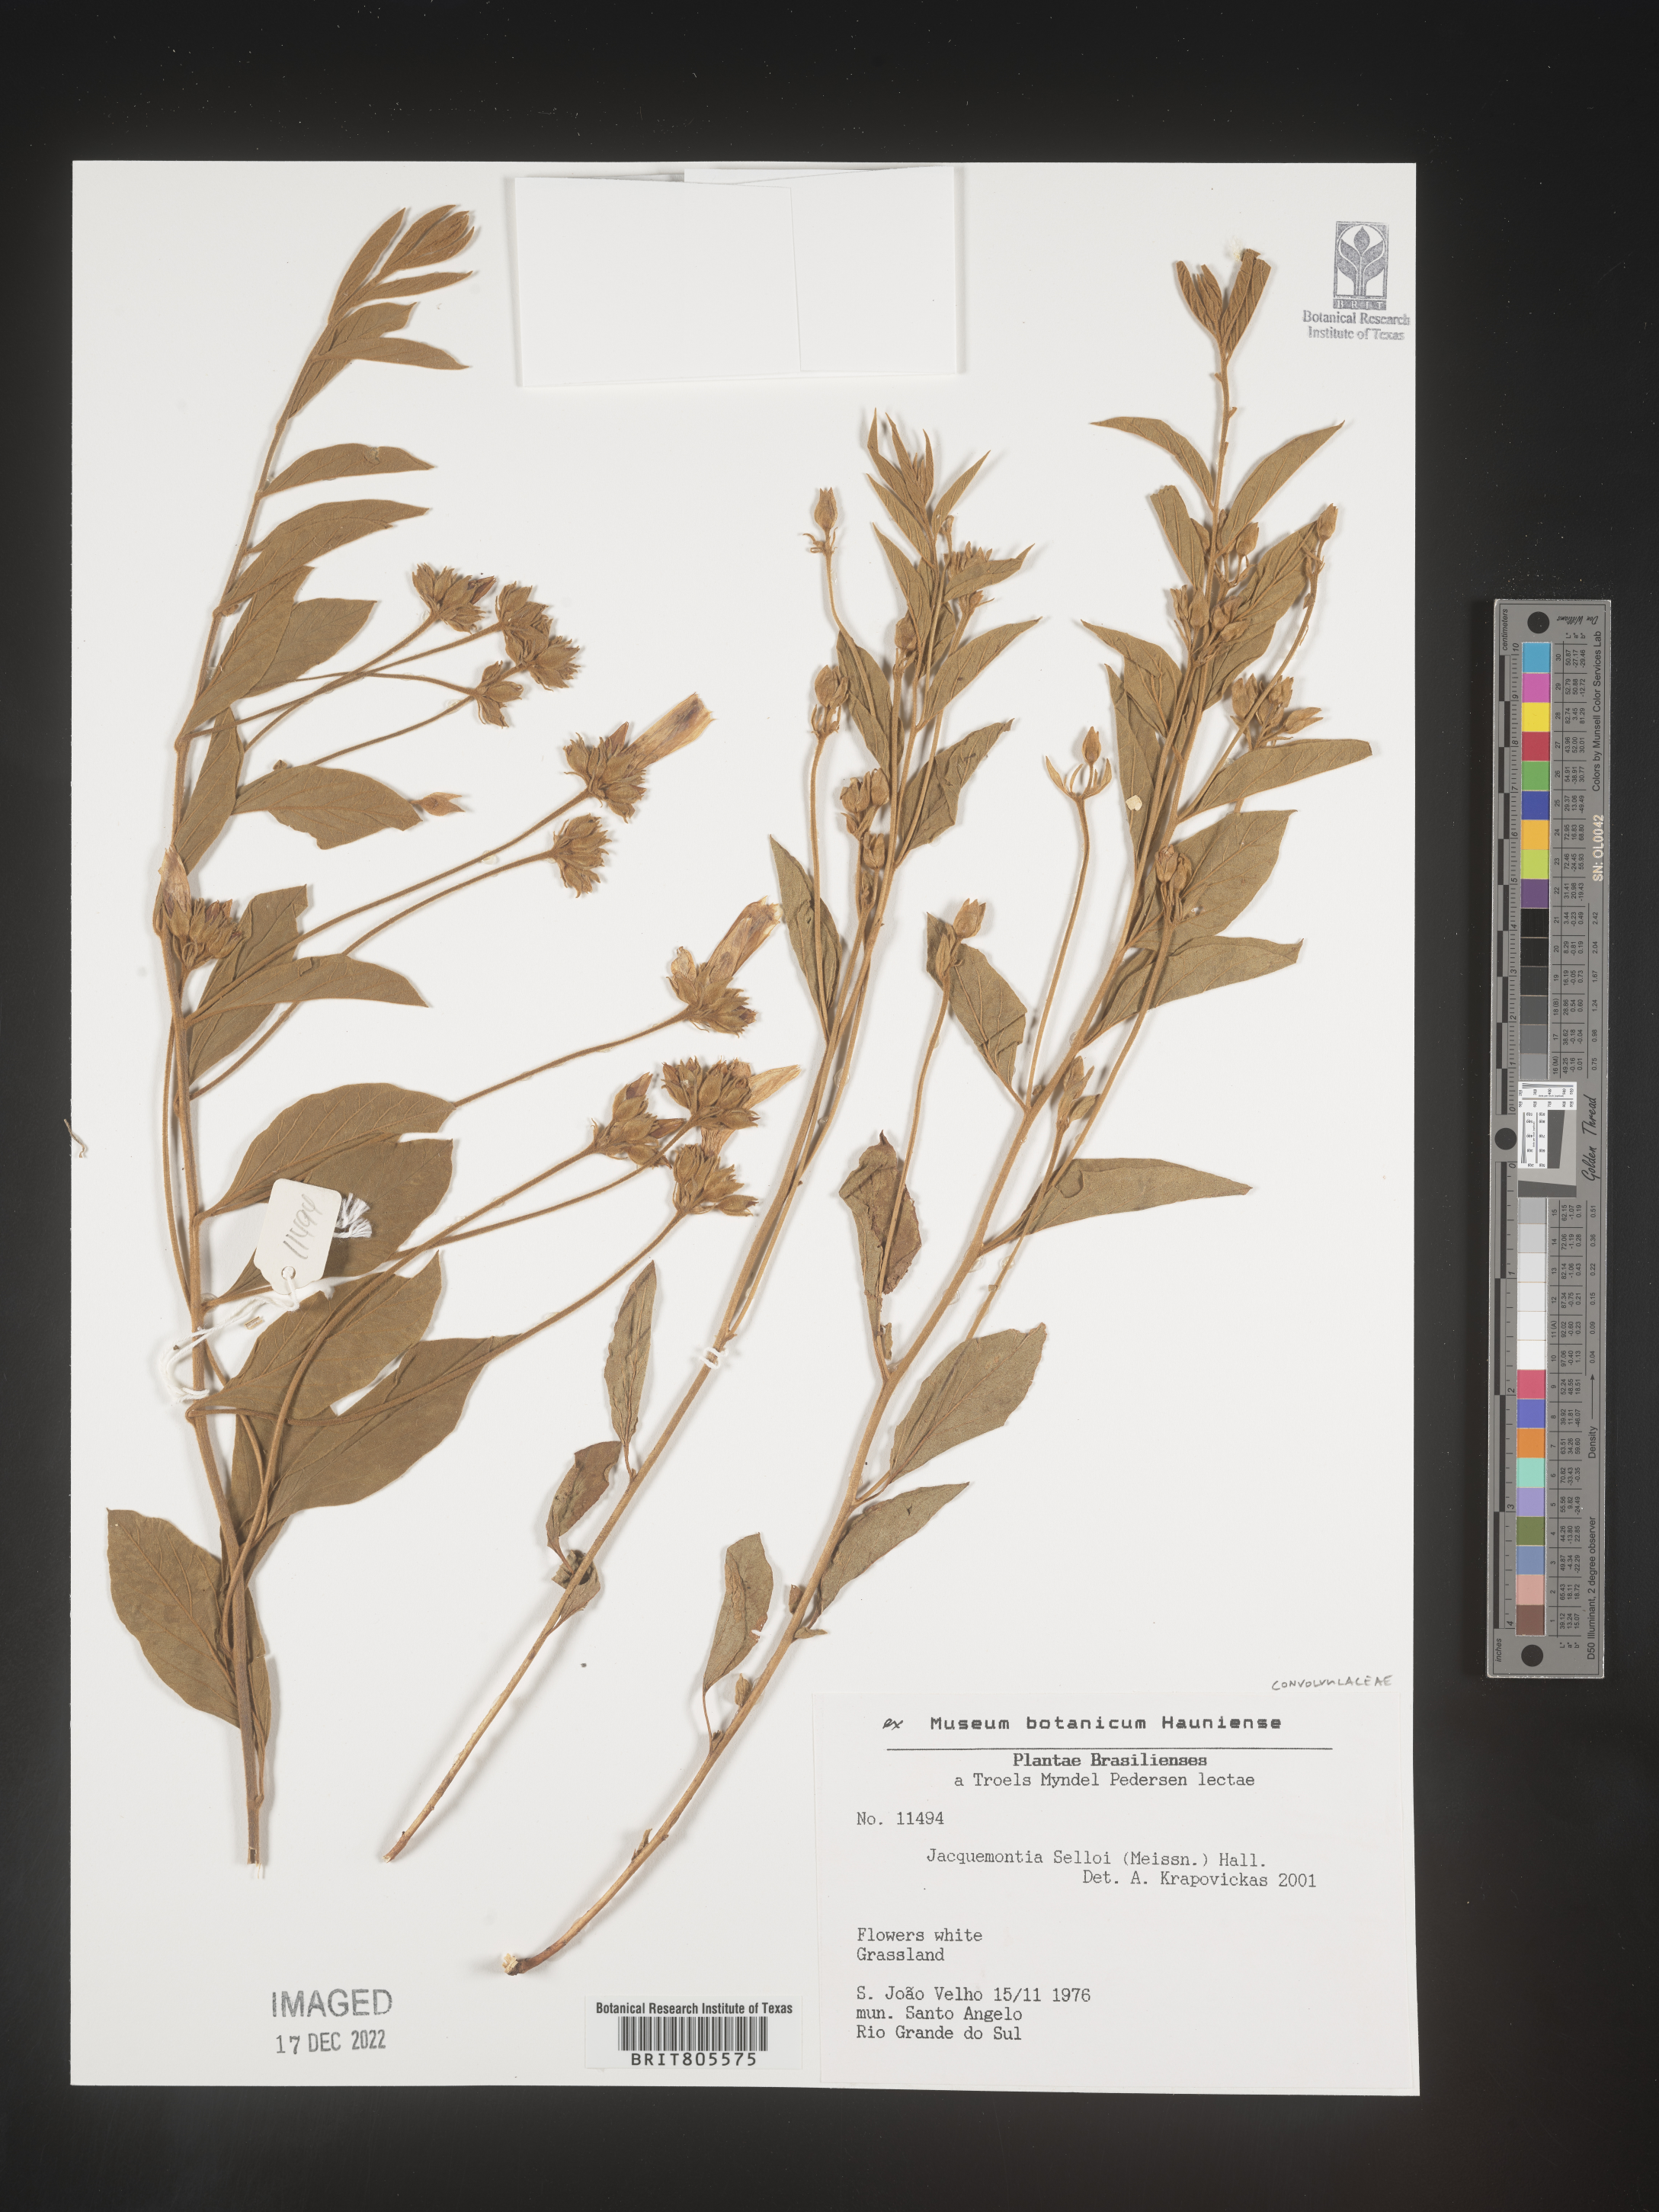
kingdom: Plantae
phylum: Tracheophyta
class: Magnoliopsida
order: Solanales
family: Convolvulaceae
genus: Jacquemontia
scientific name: Jacquemontia
